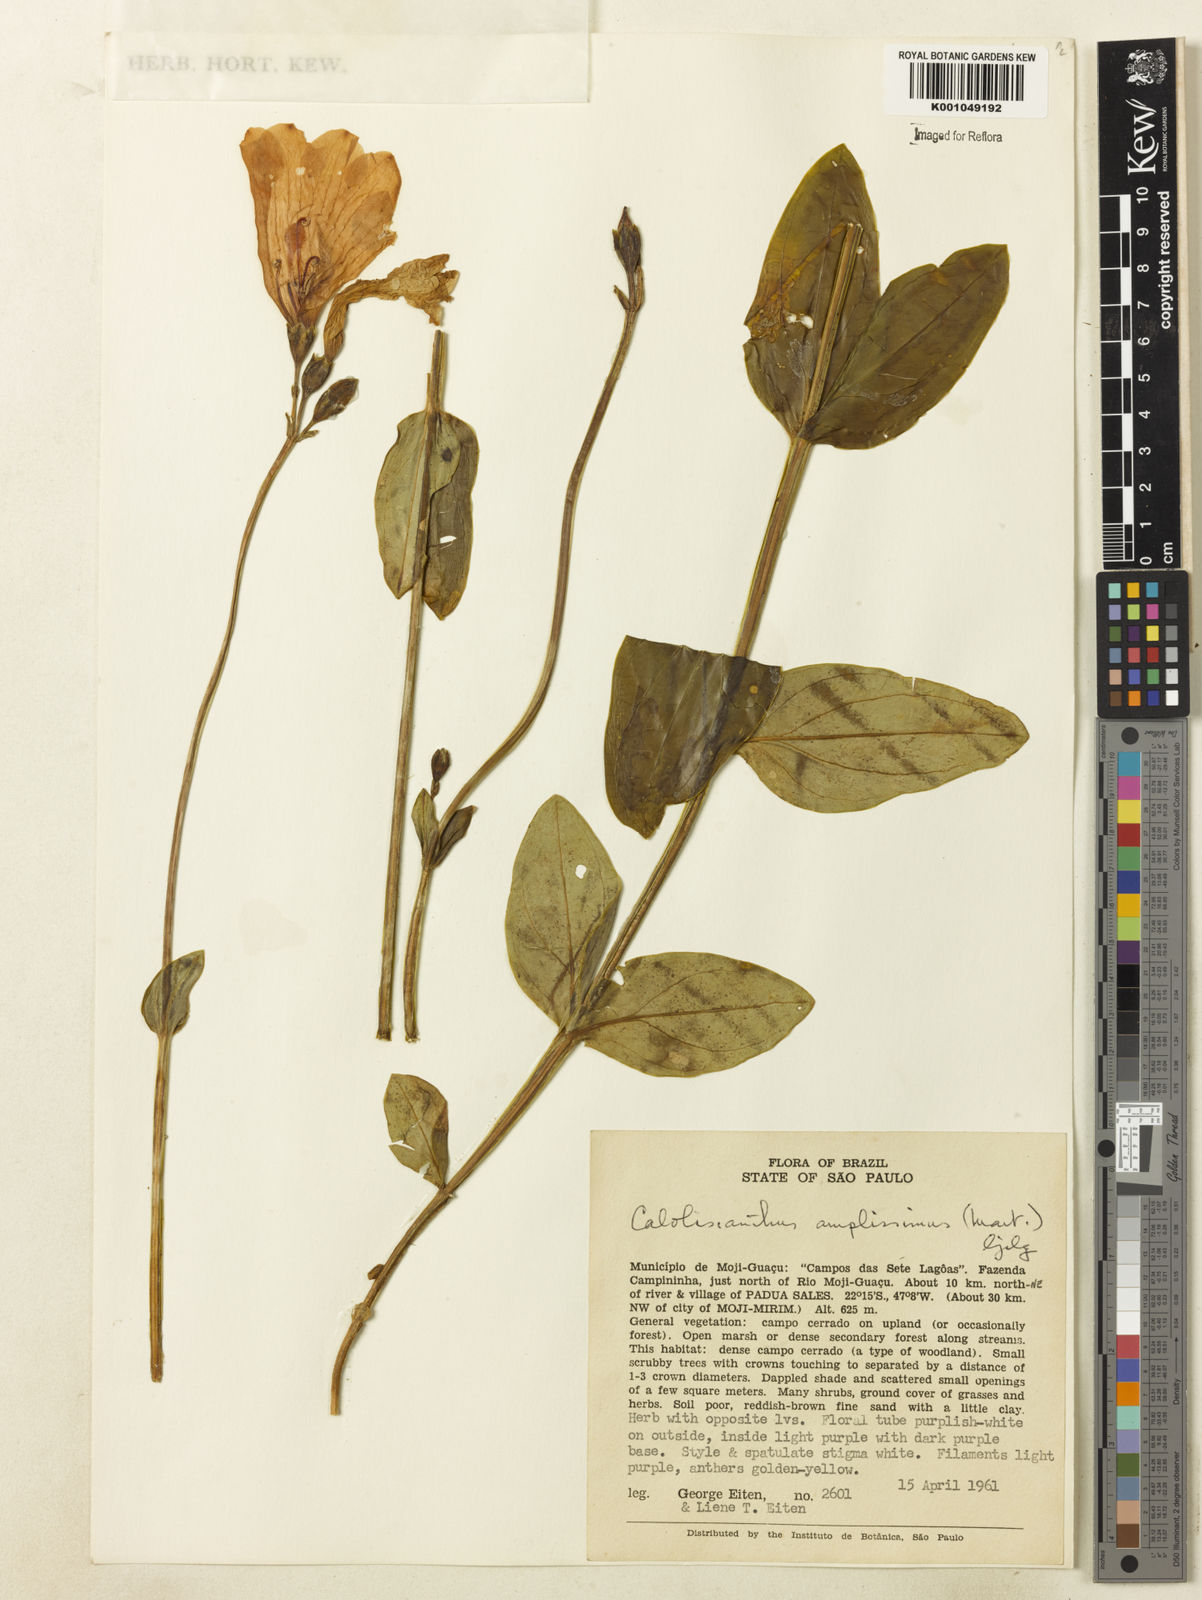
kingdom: Plantae
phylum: Tracheophyta
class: Magnoliopsida
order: Gentianales
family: Gentianaceae
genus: Calolisianthus
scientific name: Calolisianthus amplissimus
